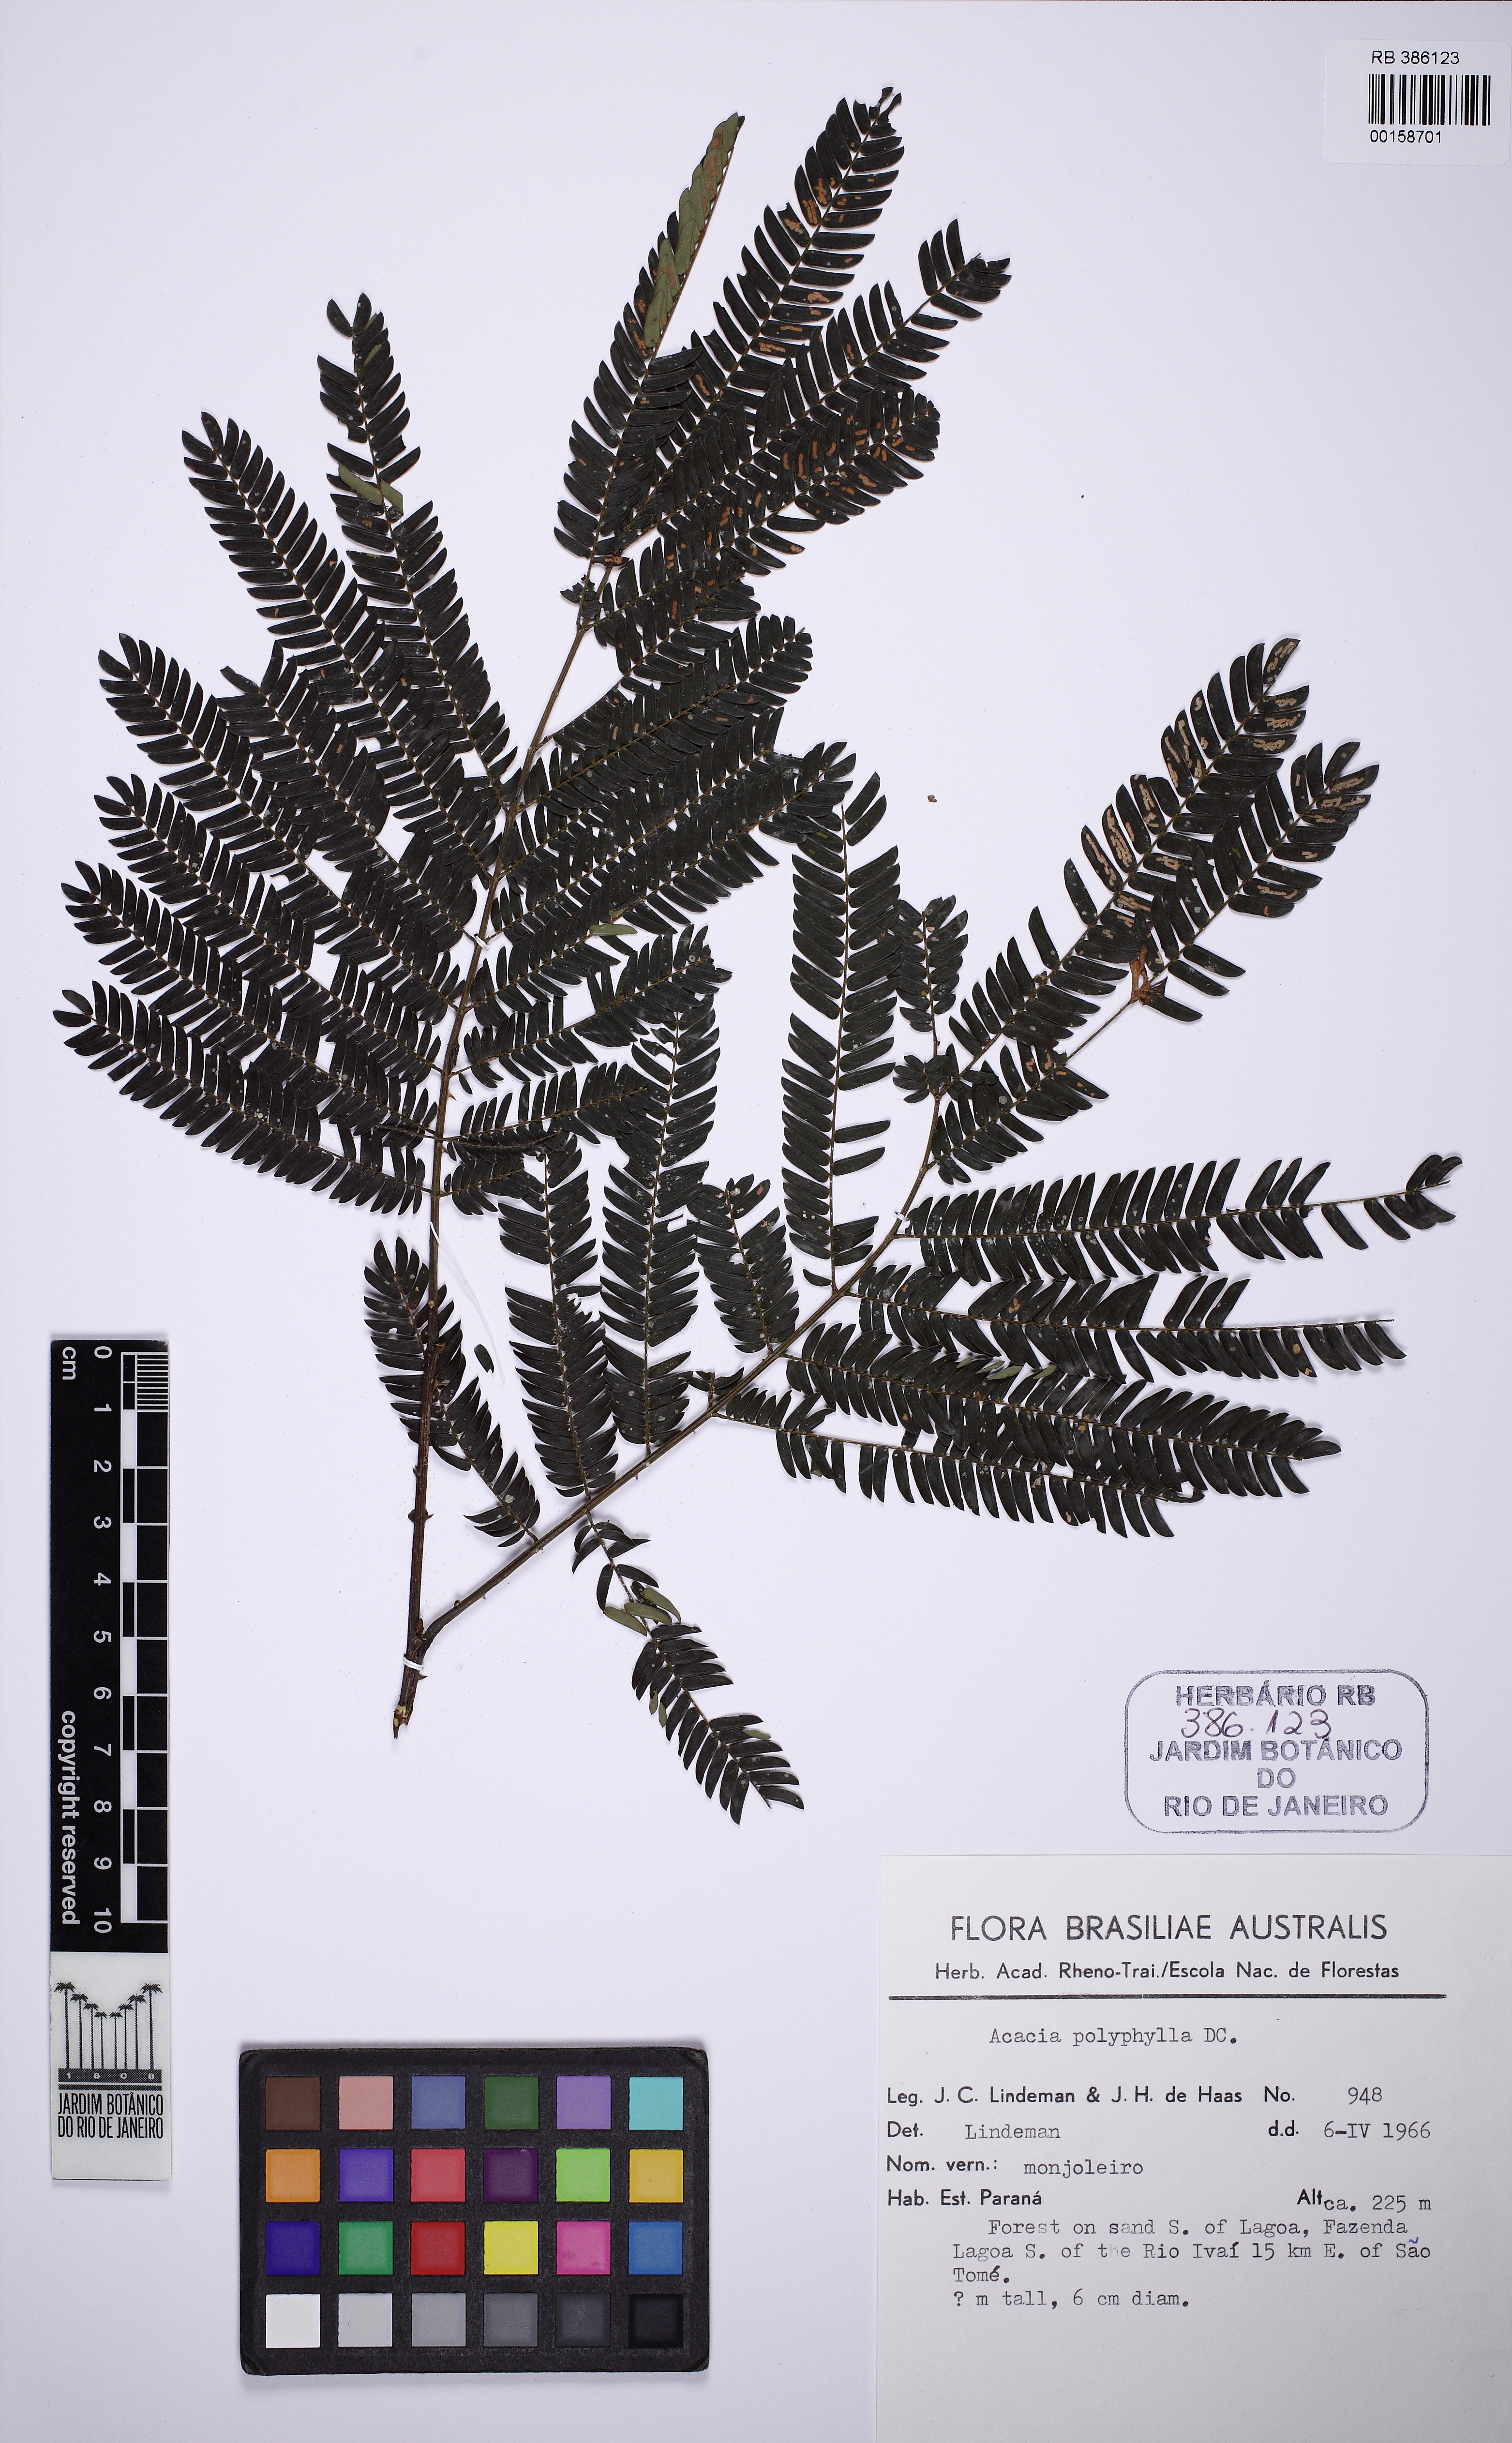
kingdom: Plantae
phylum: Tracheophyta
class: Magnoliopsida
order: Fabales
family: Fabaceae
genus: Senegalia
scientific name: Senegalia polyphylla
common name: White-tamarind
